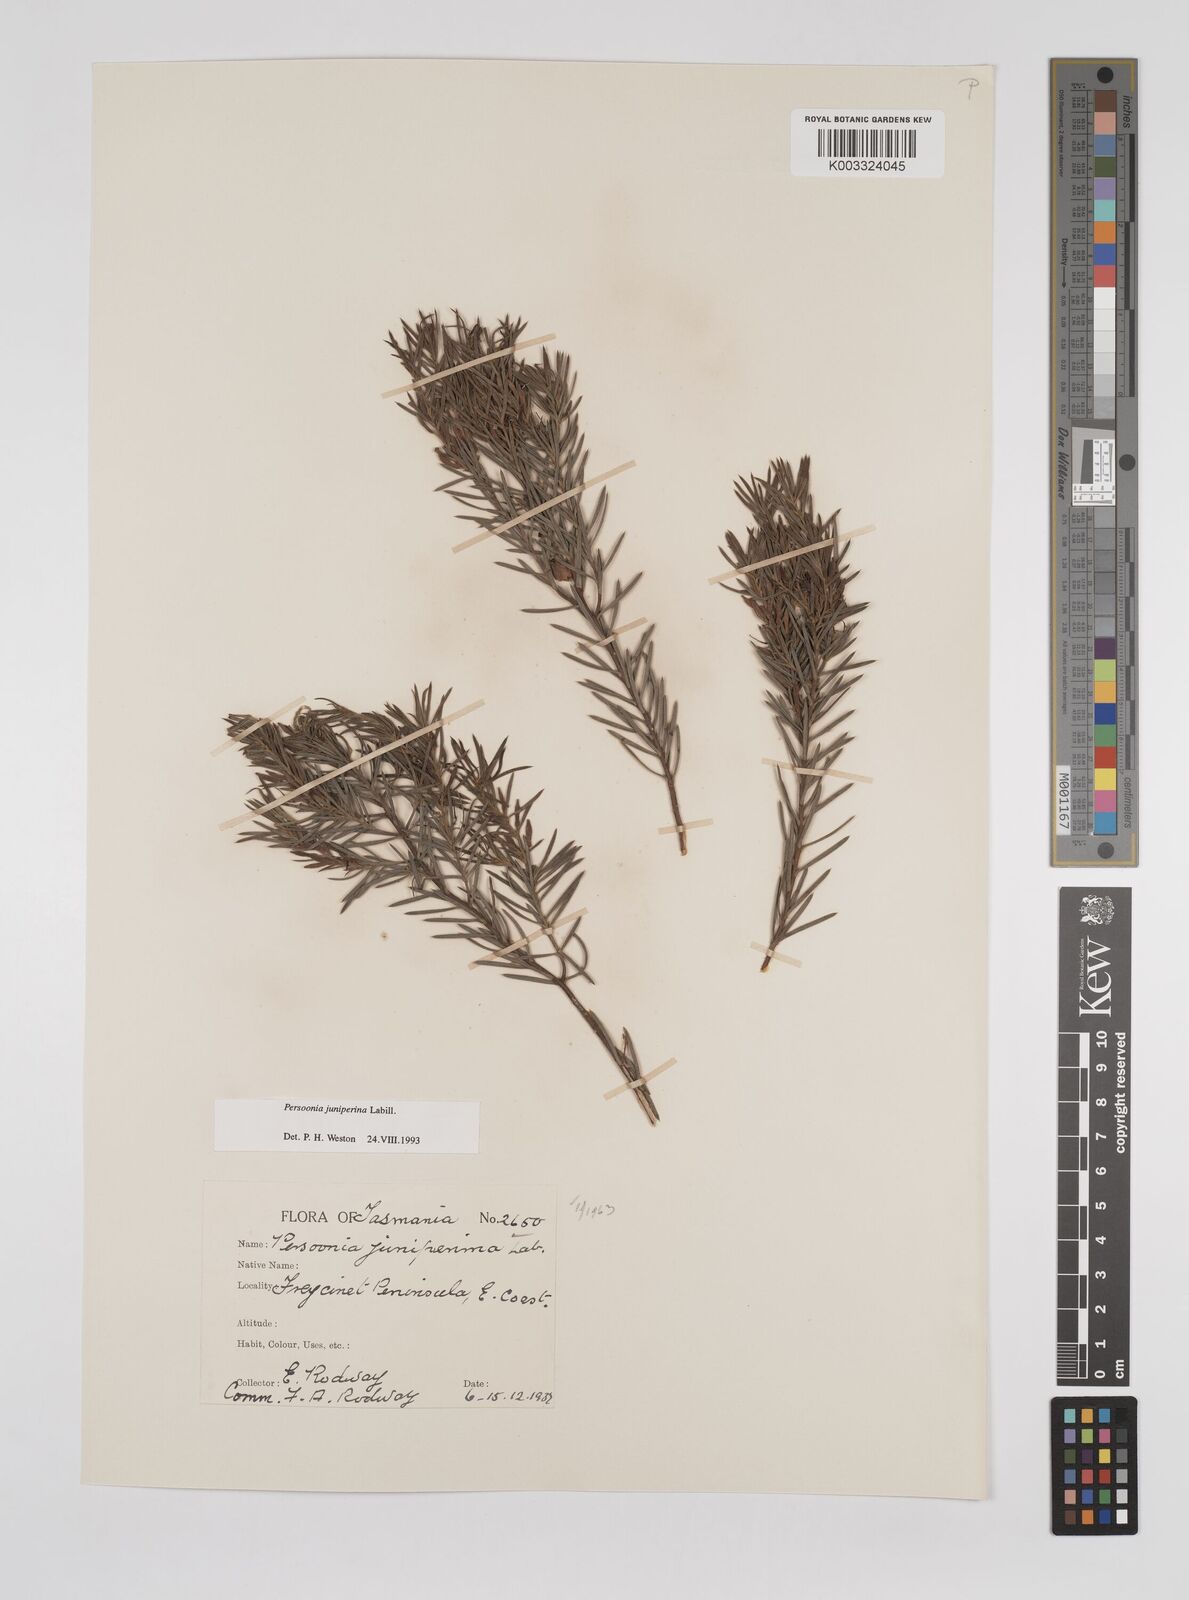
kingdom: Plantae
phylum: Tracheophyta
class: Magnoliopsida
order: Proteales
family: Proteaceae
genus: Persoonia
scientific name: Persoonia juniperina
